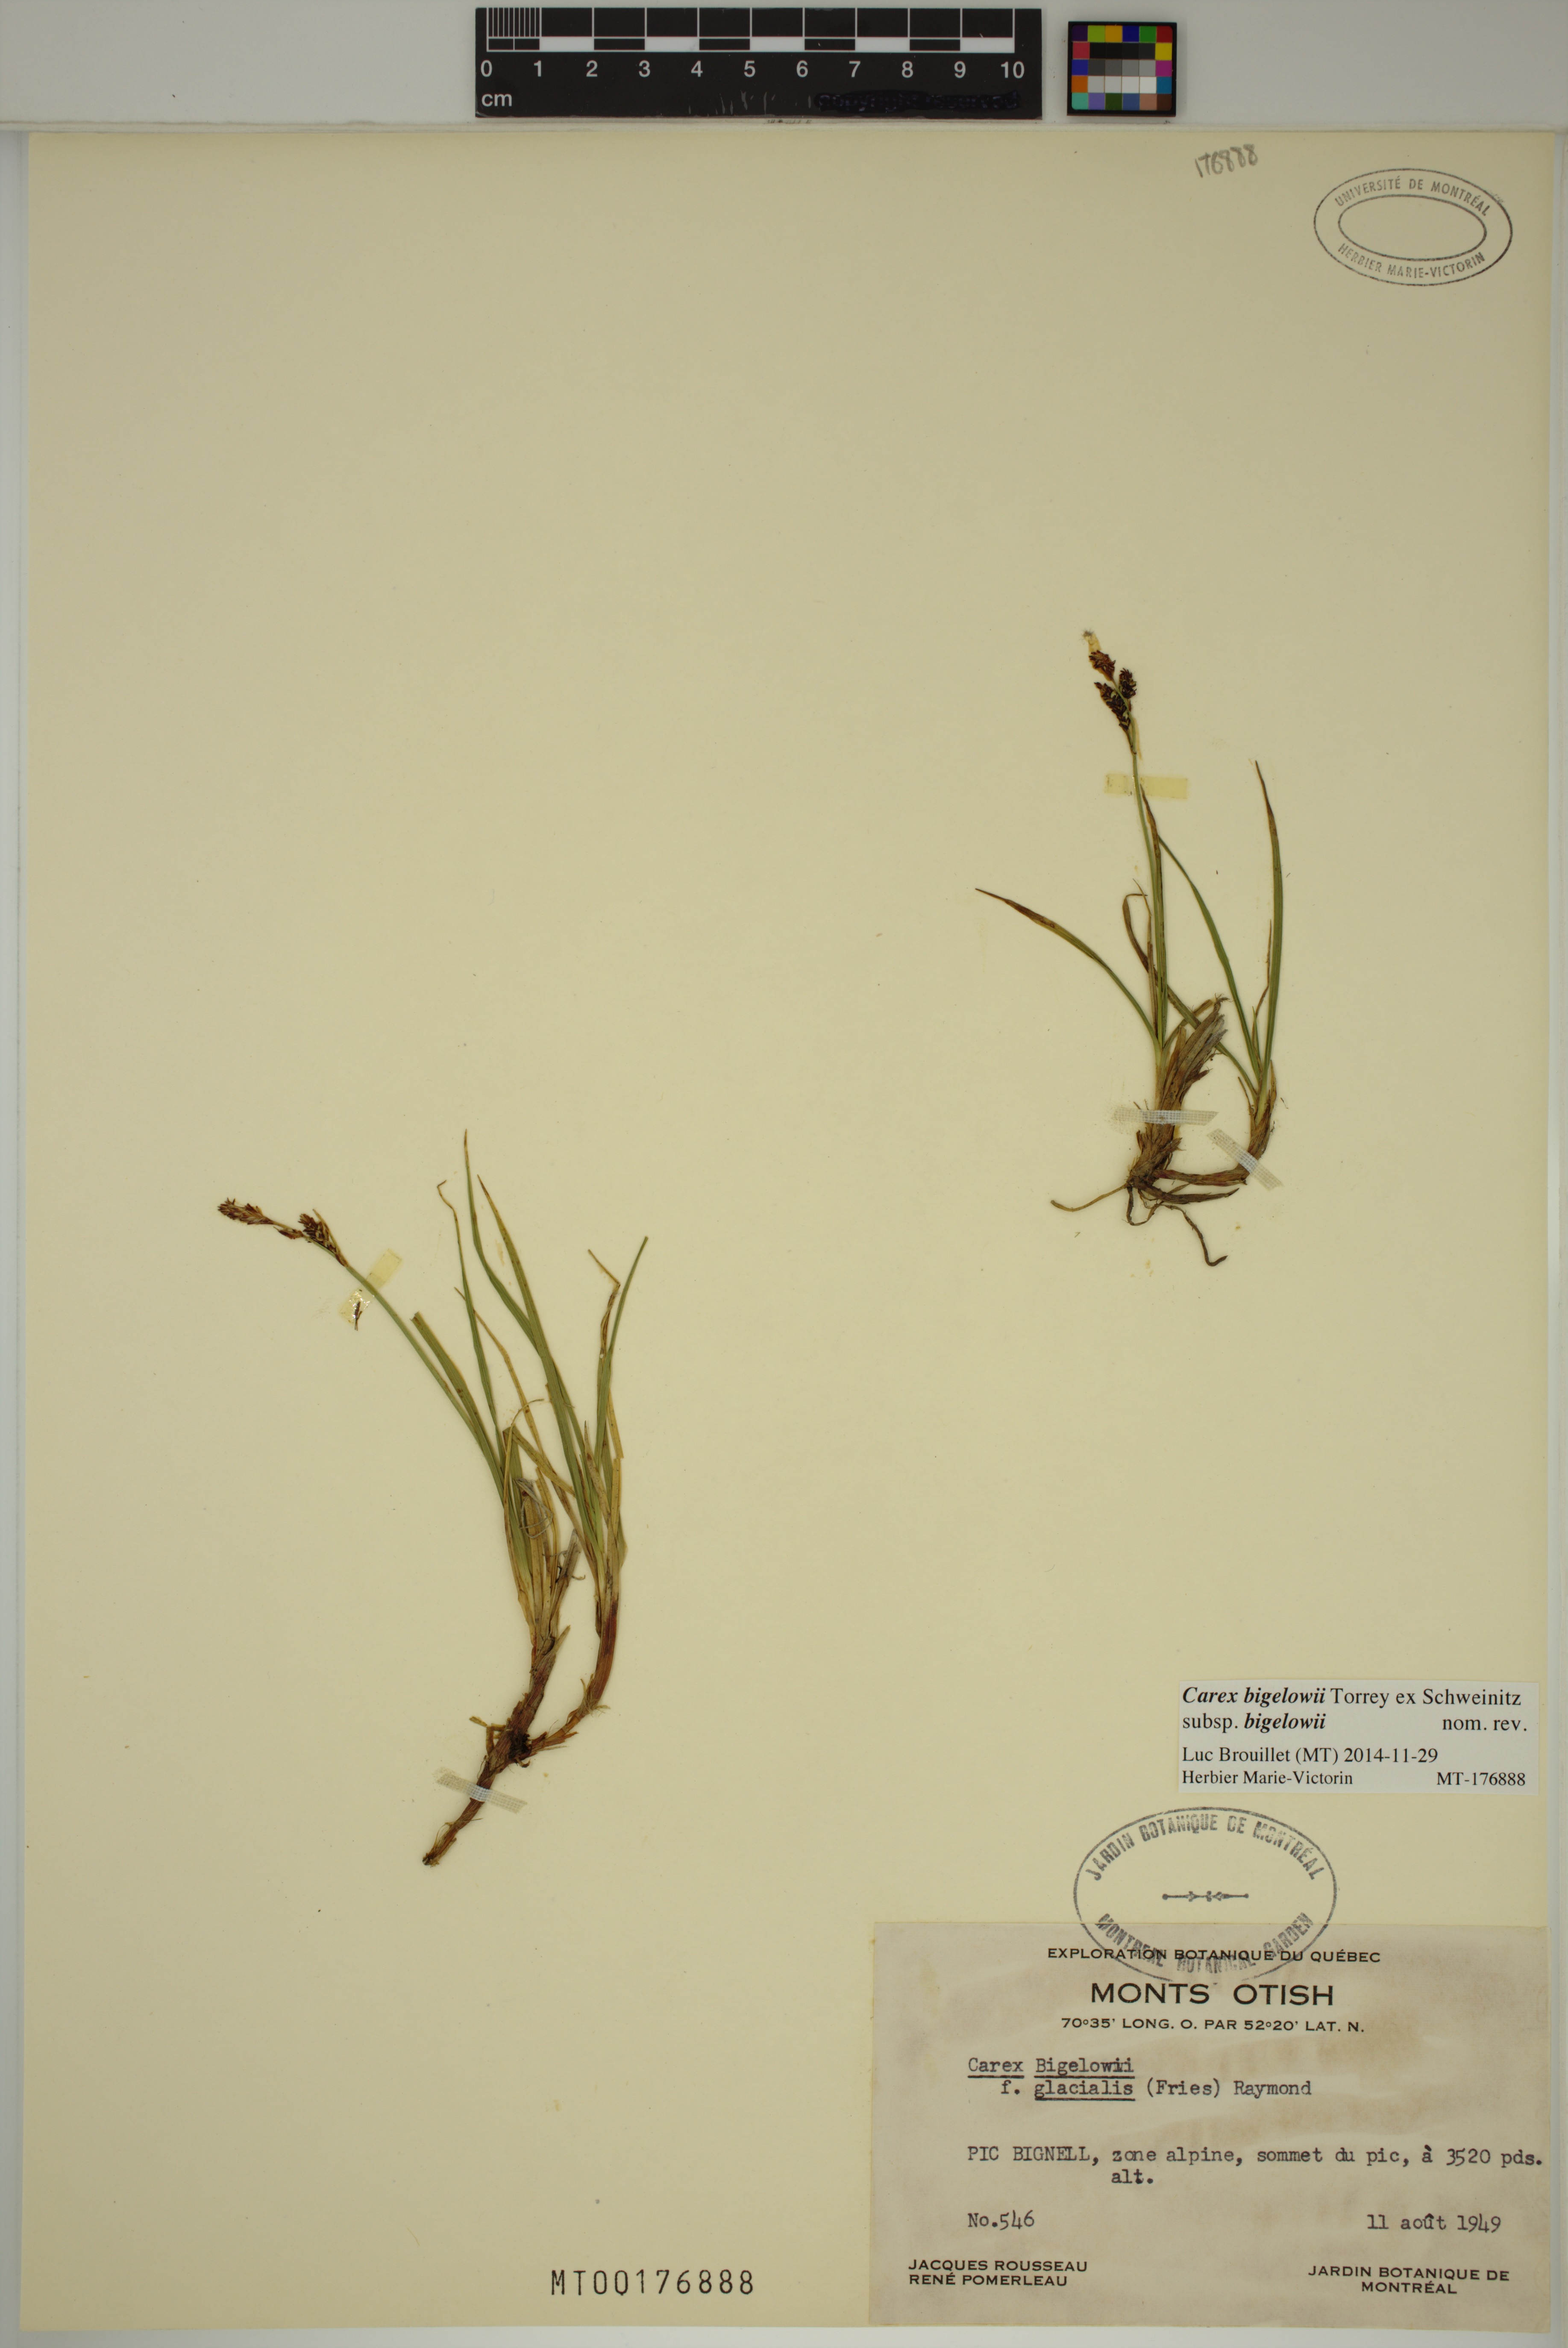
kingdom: Plantae
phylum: Tracheophyta
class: Liliopsida
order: Poales
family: Cyperaceae
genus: Carex
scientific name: Carex bigelowii
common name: Stiff sedge
